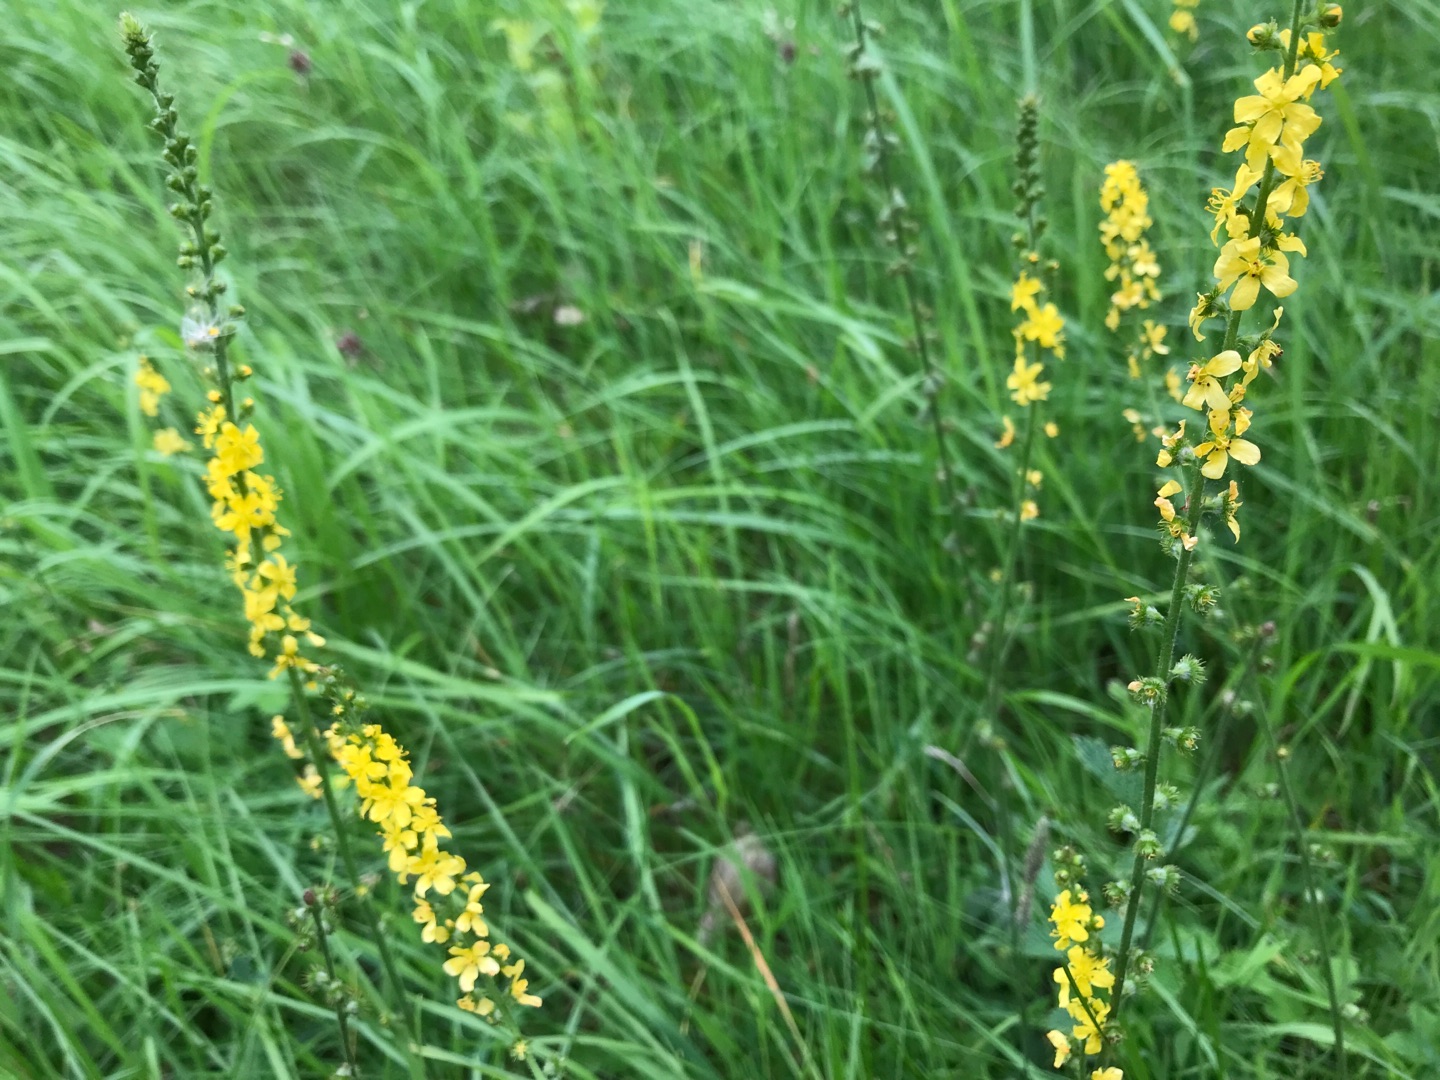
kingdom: Plantae
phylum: Tracheophyta
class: Magnoliopsida
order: Rosales
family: Rosaceae
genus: Agrimonia
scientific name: Agrimonia eupatoria
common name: Almindelig agermåne
